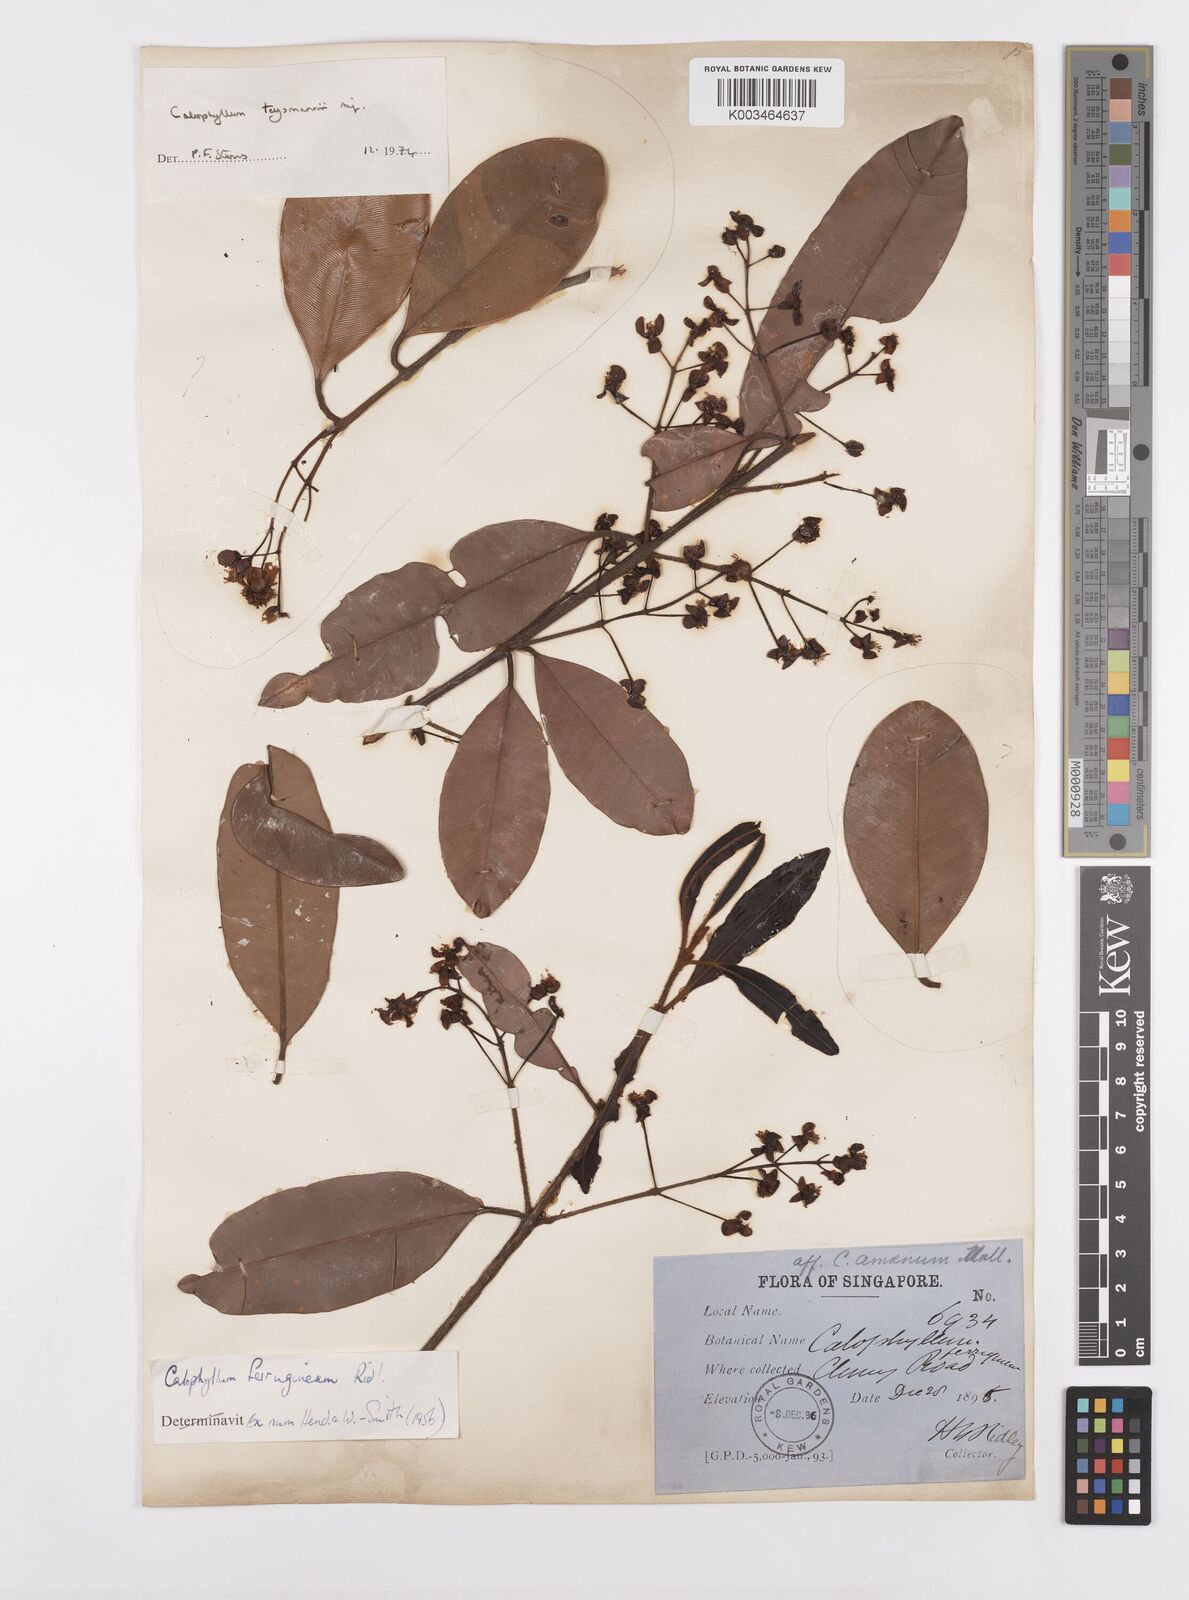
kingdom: Plantae
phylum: Tracheophyta
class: Magnoliopsida
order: Malpighiales
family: Calophyllaceae
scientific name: Calophyllaceae
